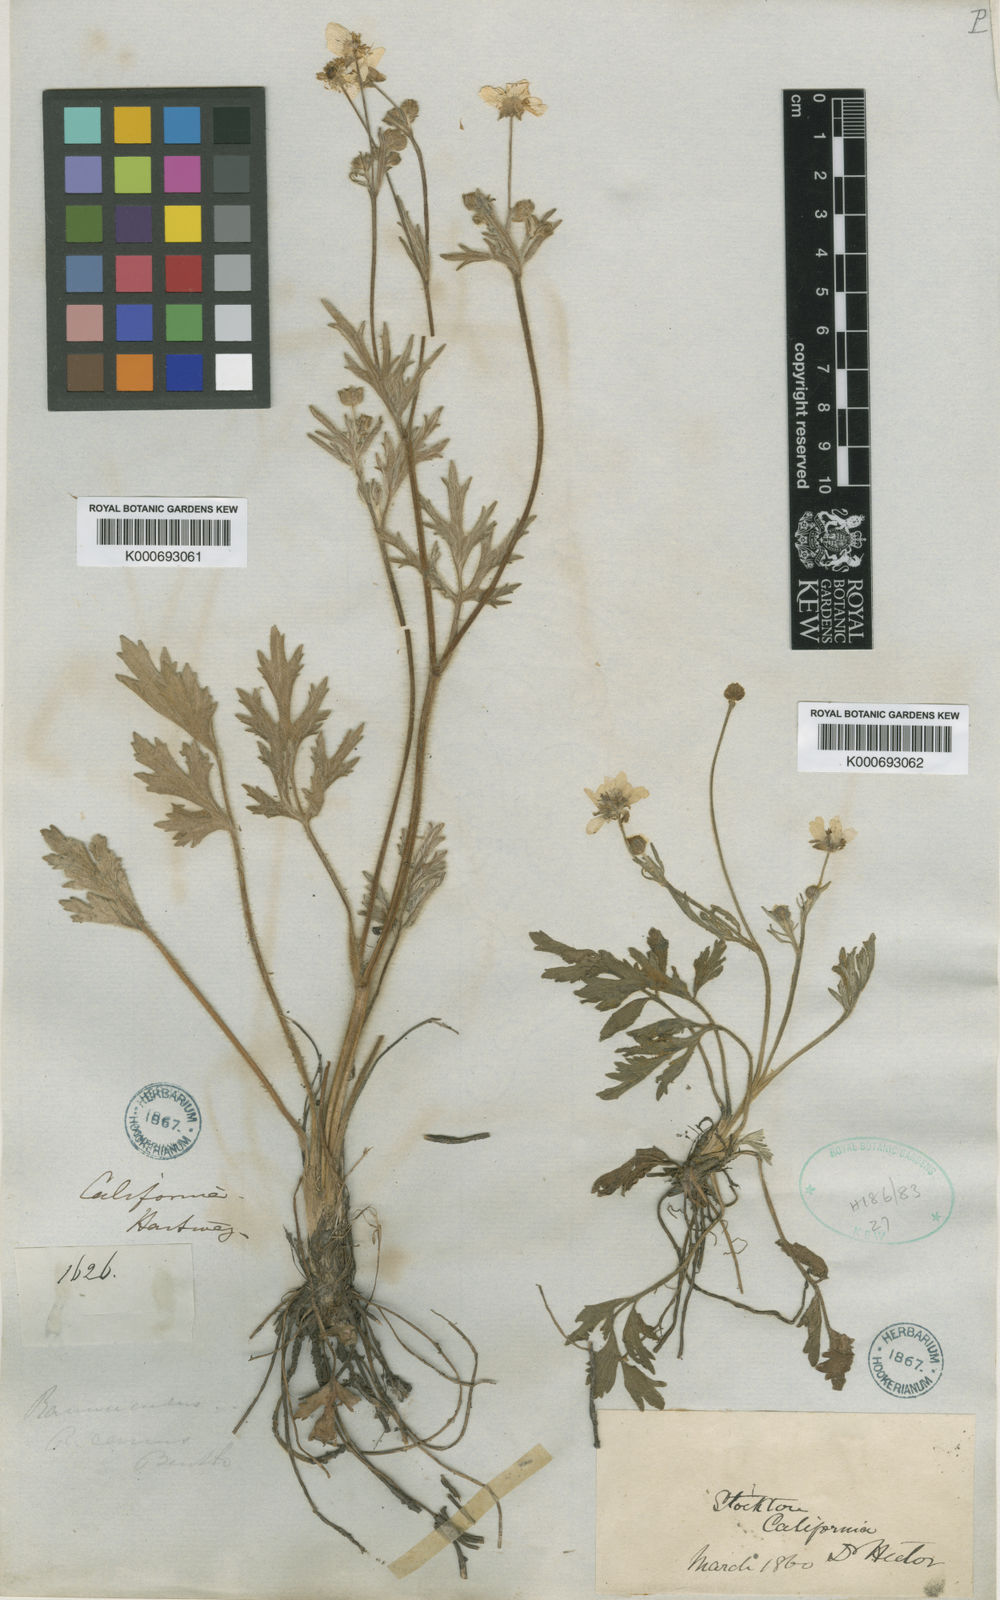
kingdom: Plantae
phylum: Tracheophyta
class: Magnoliopsida
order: Ranunculales
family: Ranunculaceae
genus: Ranunculus
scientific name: Ranunculus canus
